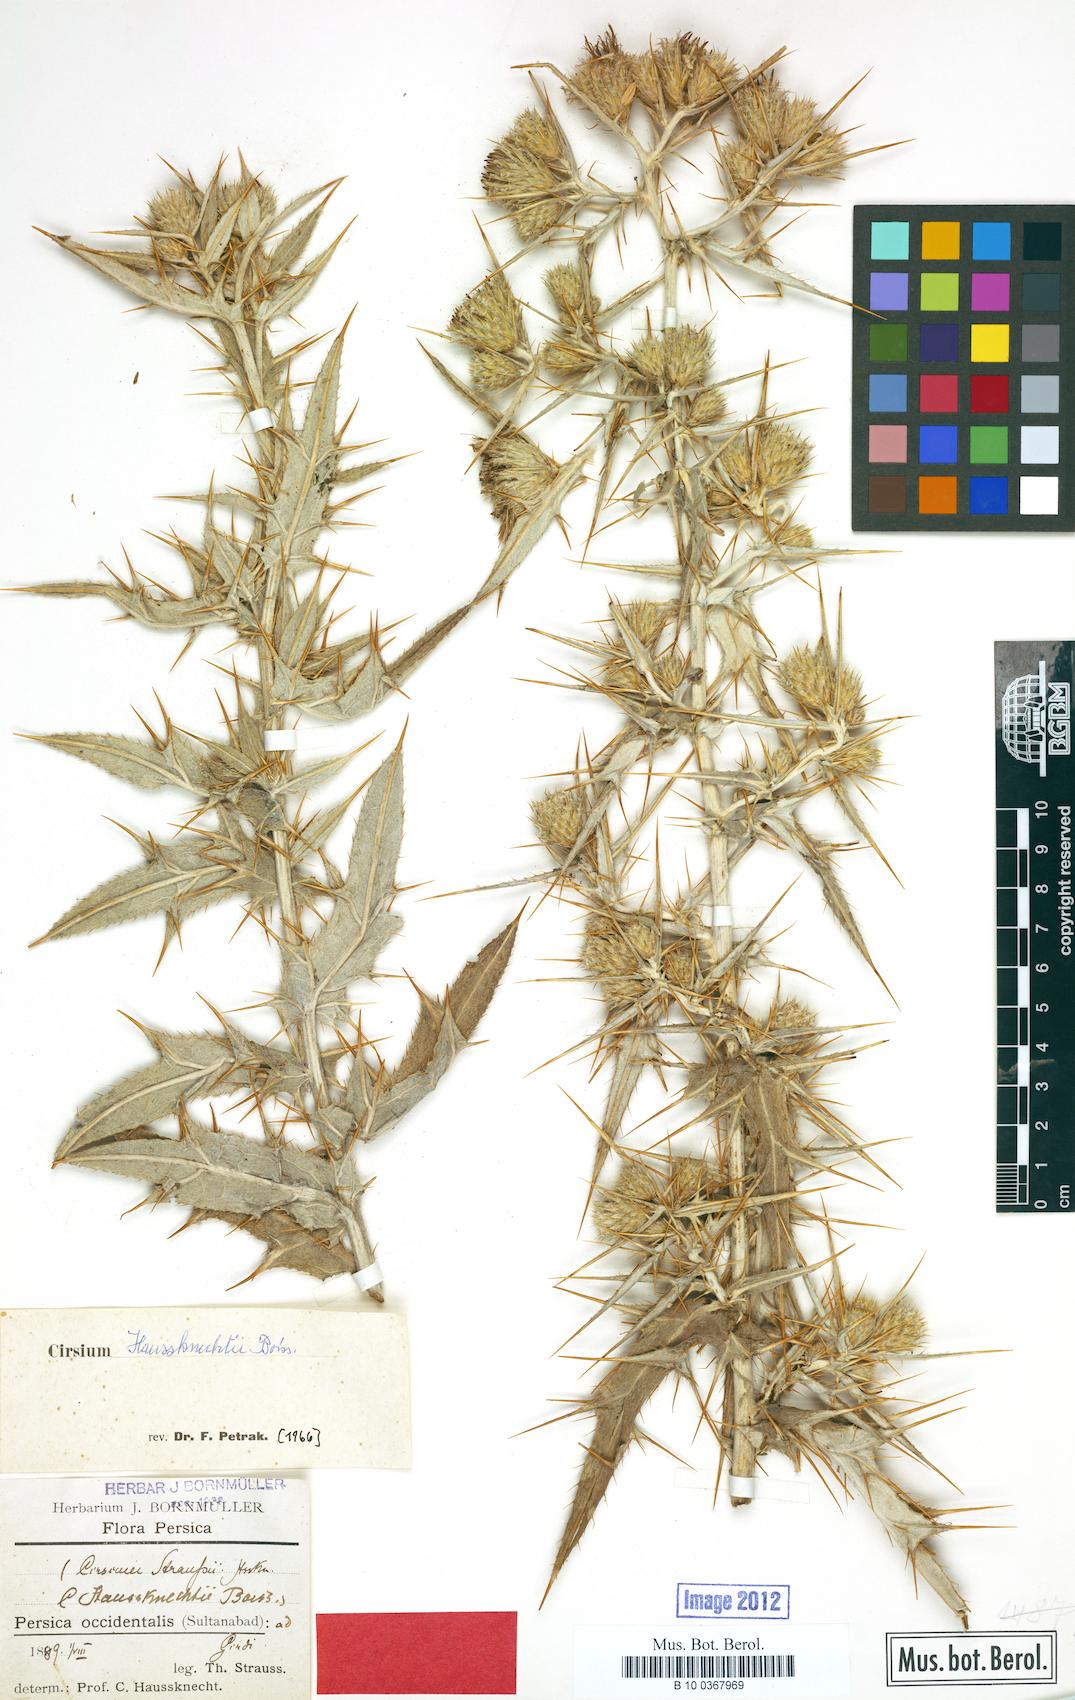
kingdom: Plantae
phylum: Tracheophyta
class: Magnoliopsida
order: Asterales
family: Asteraceae
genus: Lophiolepis
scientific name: Lophiolepis haussknechtii
